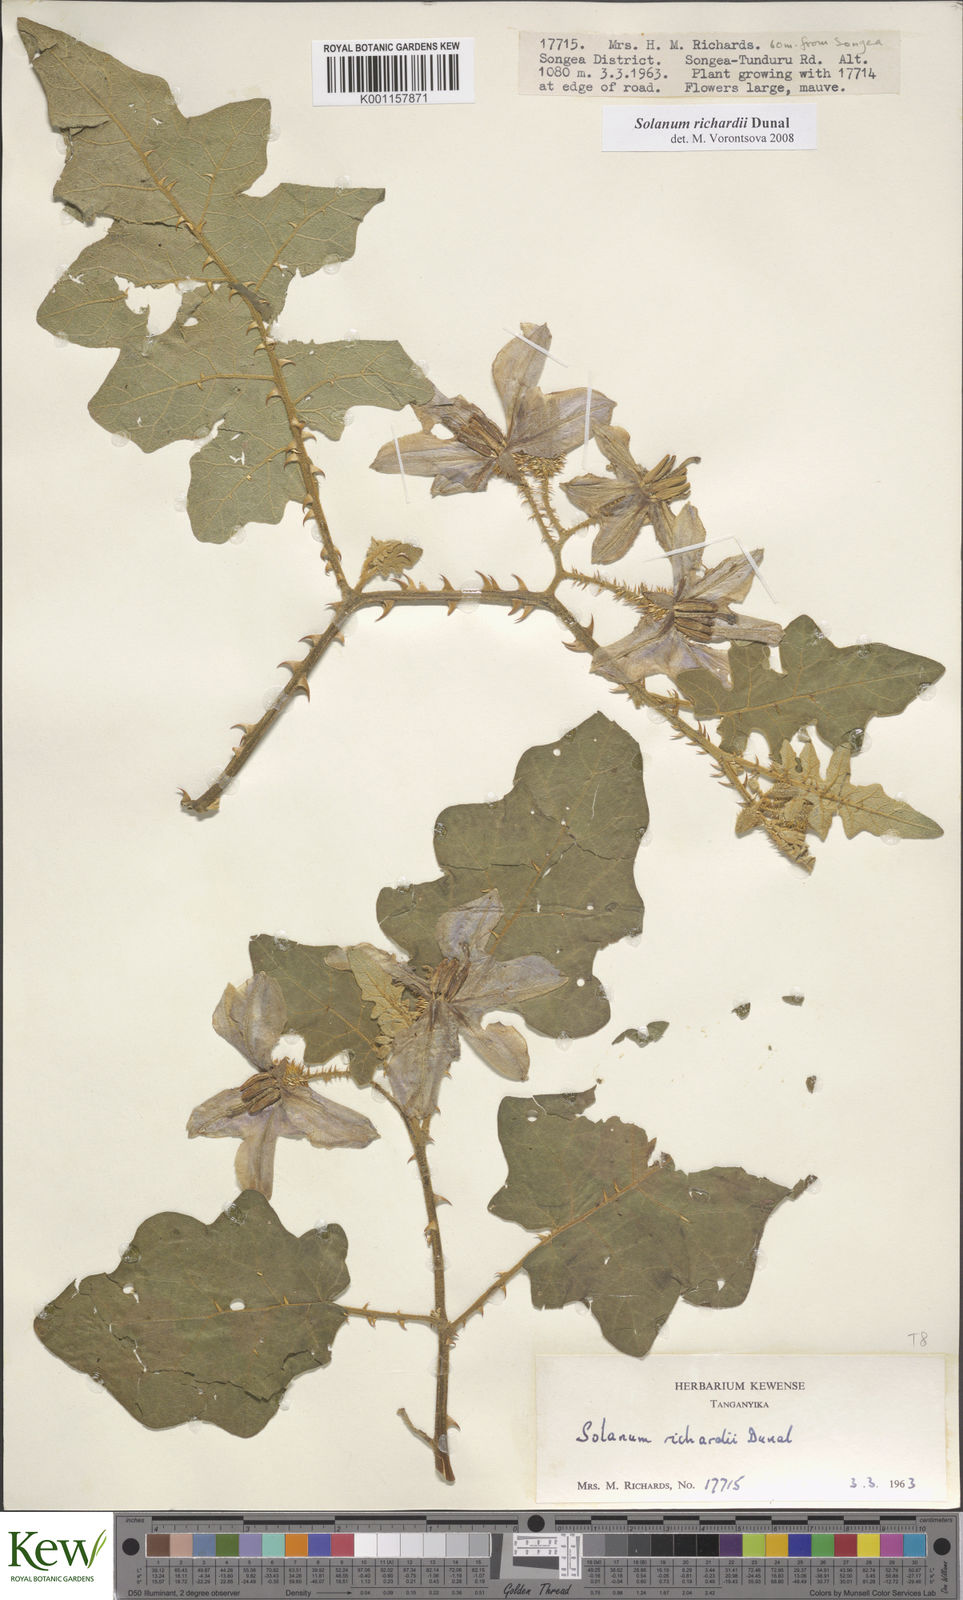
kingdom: Plantae
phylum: Tracheophyta
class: Magnoliopsida
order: Solanales
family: Solanaceae
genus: Solanum
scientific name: Solanum richardii
